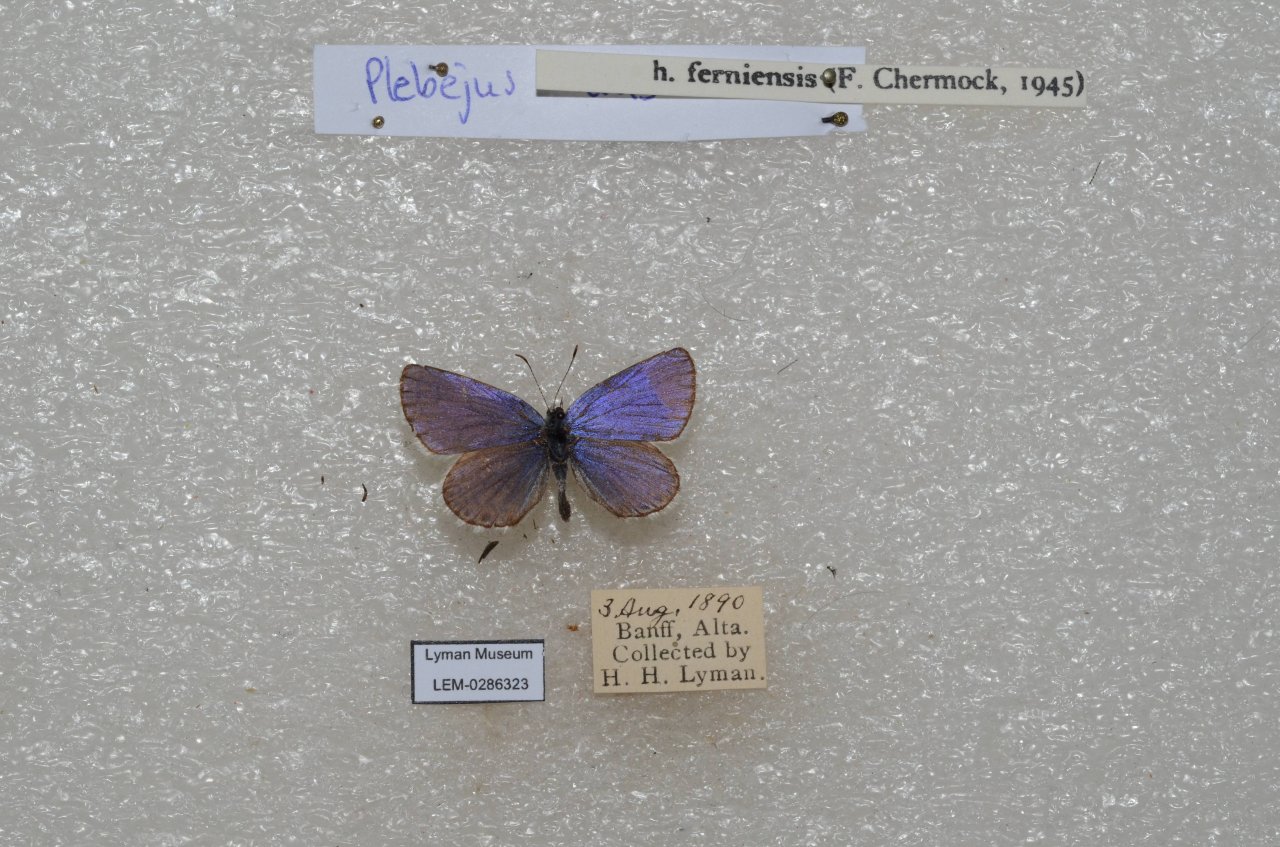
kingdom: Animalia
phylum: Arthropoda
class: Insecta
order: Lepidoptera
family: Lycaenidae
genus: Lycaeides
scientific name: Lycaeides idas
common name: Northern Blue
